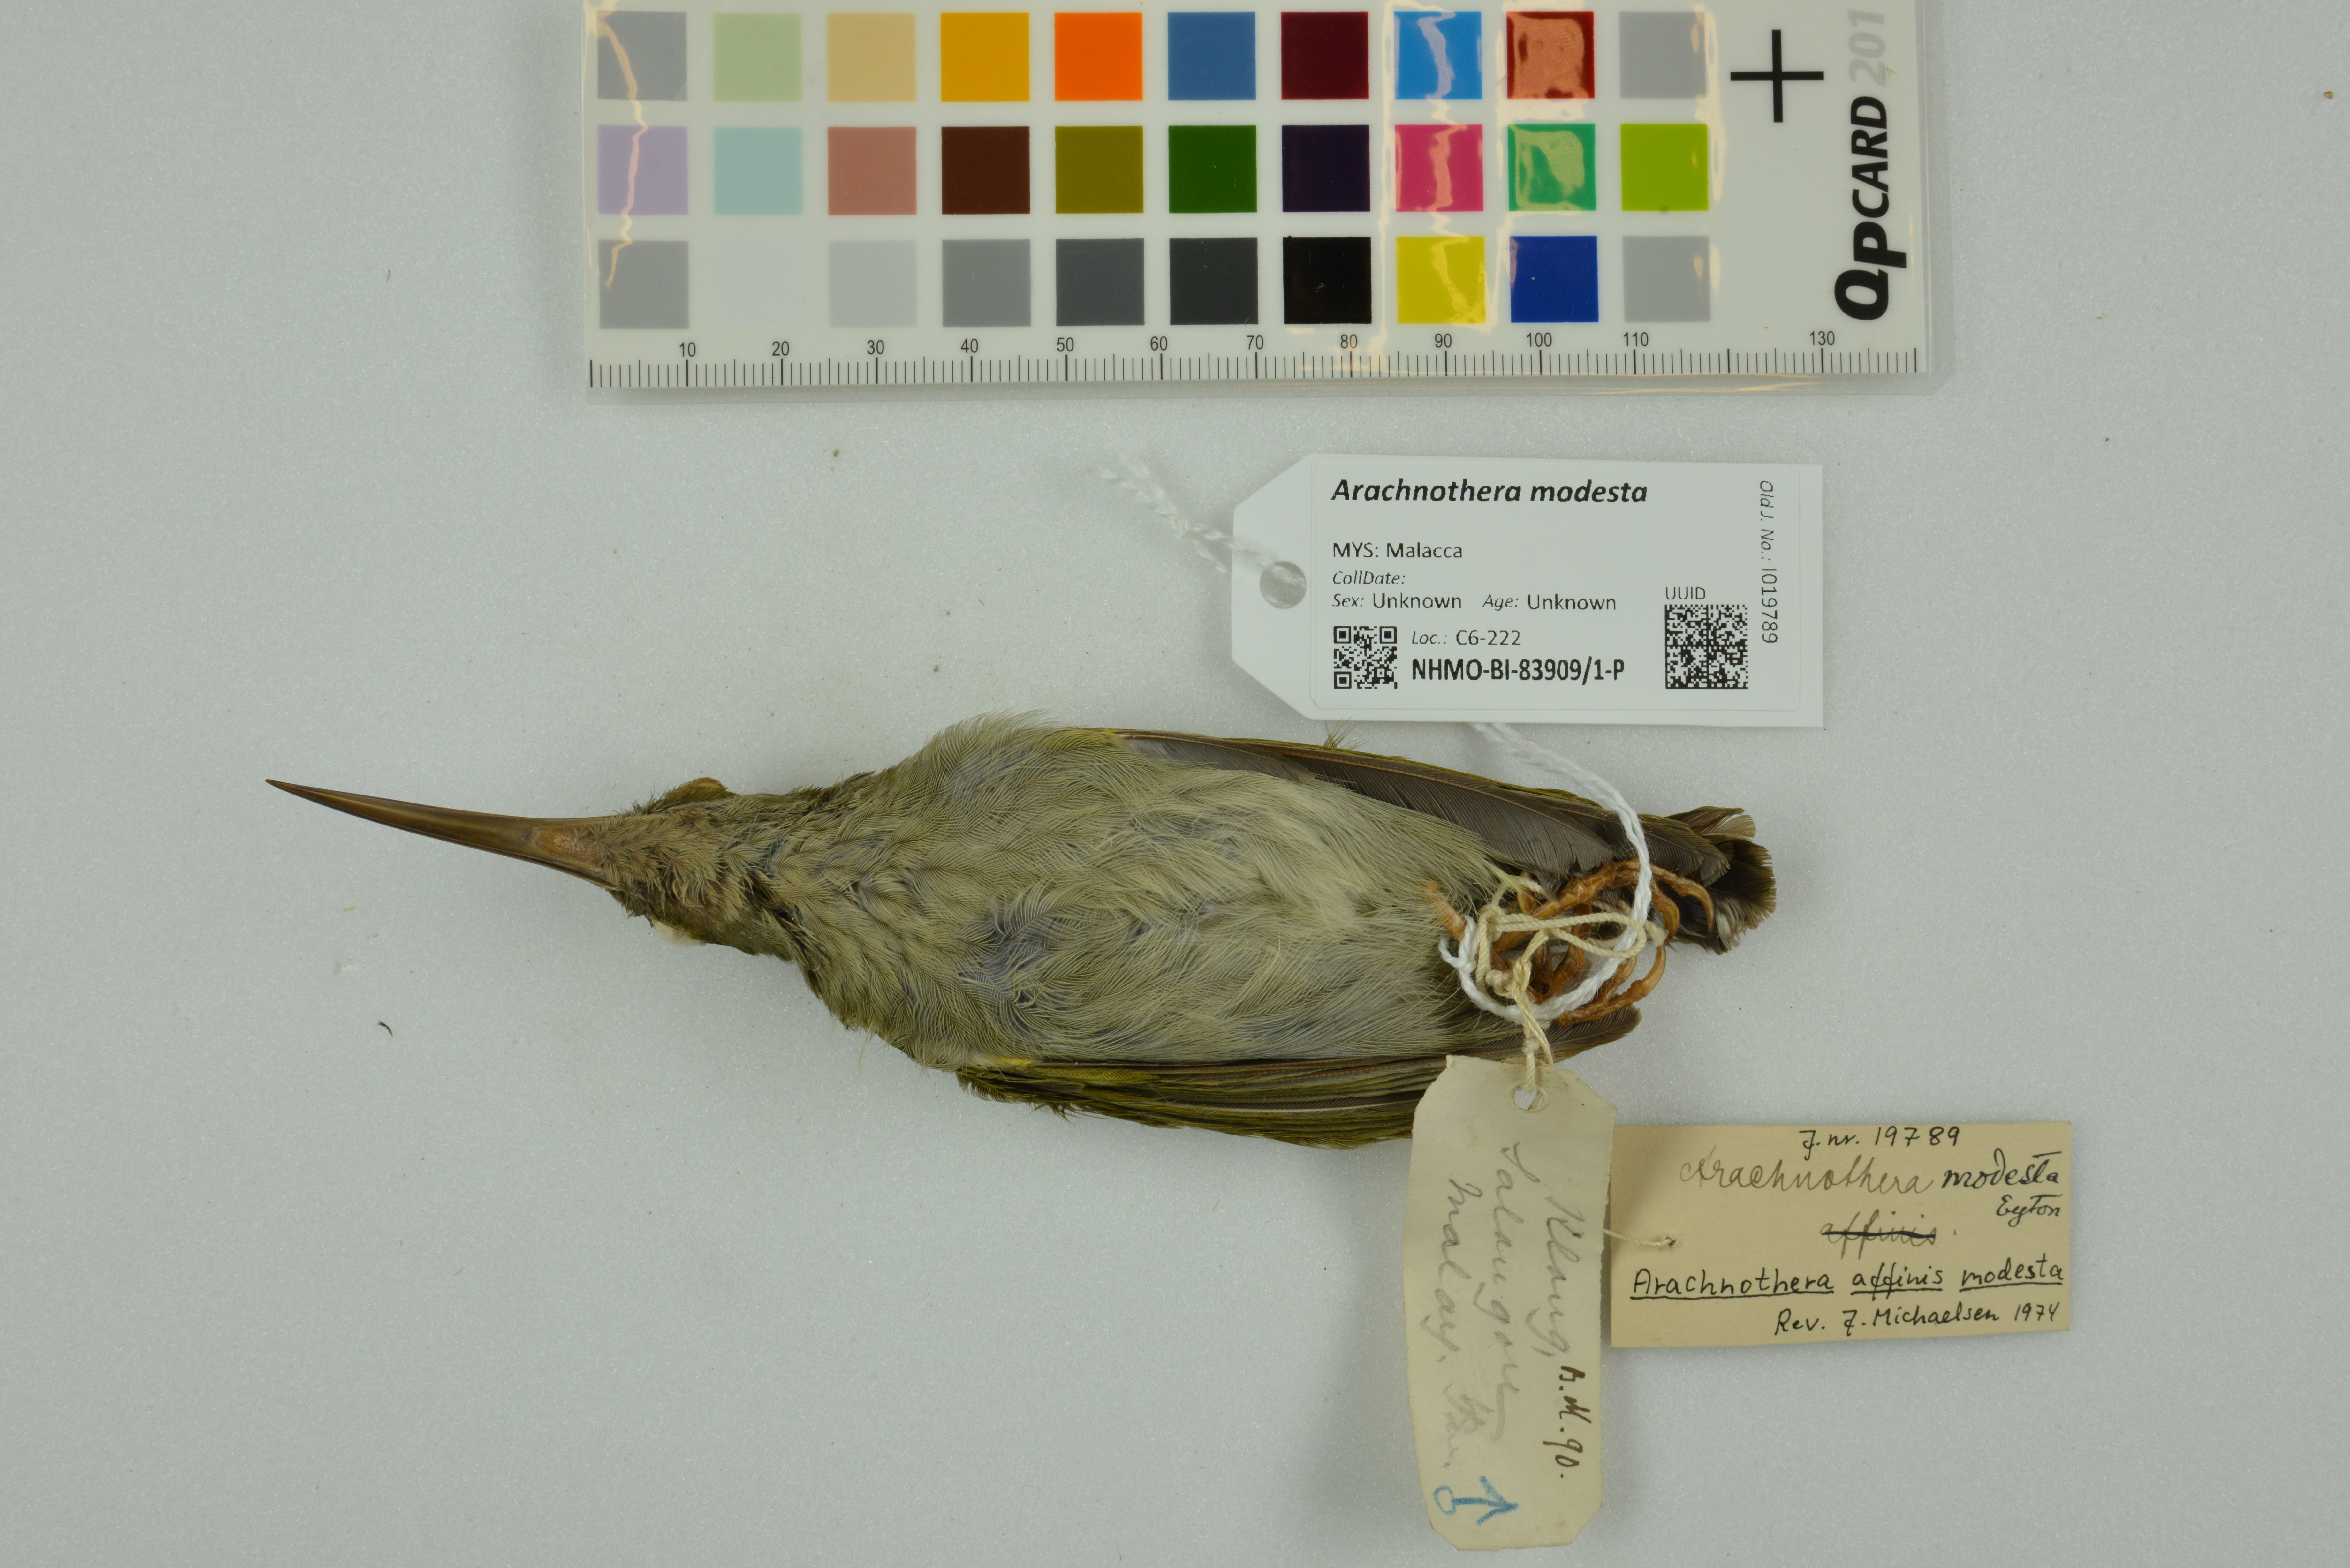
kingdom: Animalia
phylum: Chordata
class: Aves
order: Passeriformes
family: Nectariniidae
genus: Arachnothera
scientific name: Arachnothera modesta
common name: Grey-breasted spiderhunter
